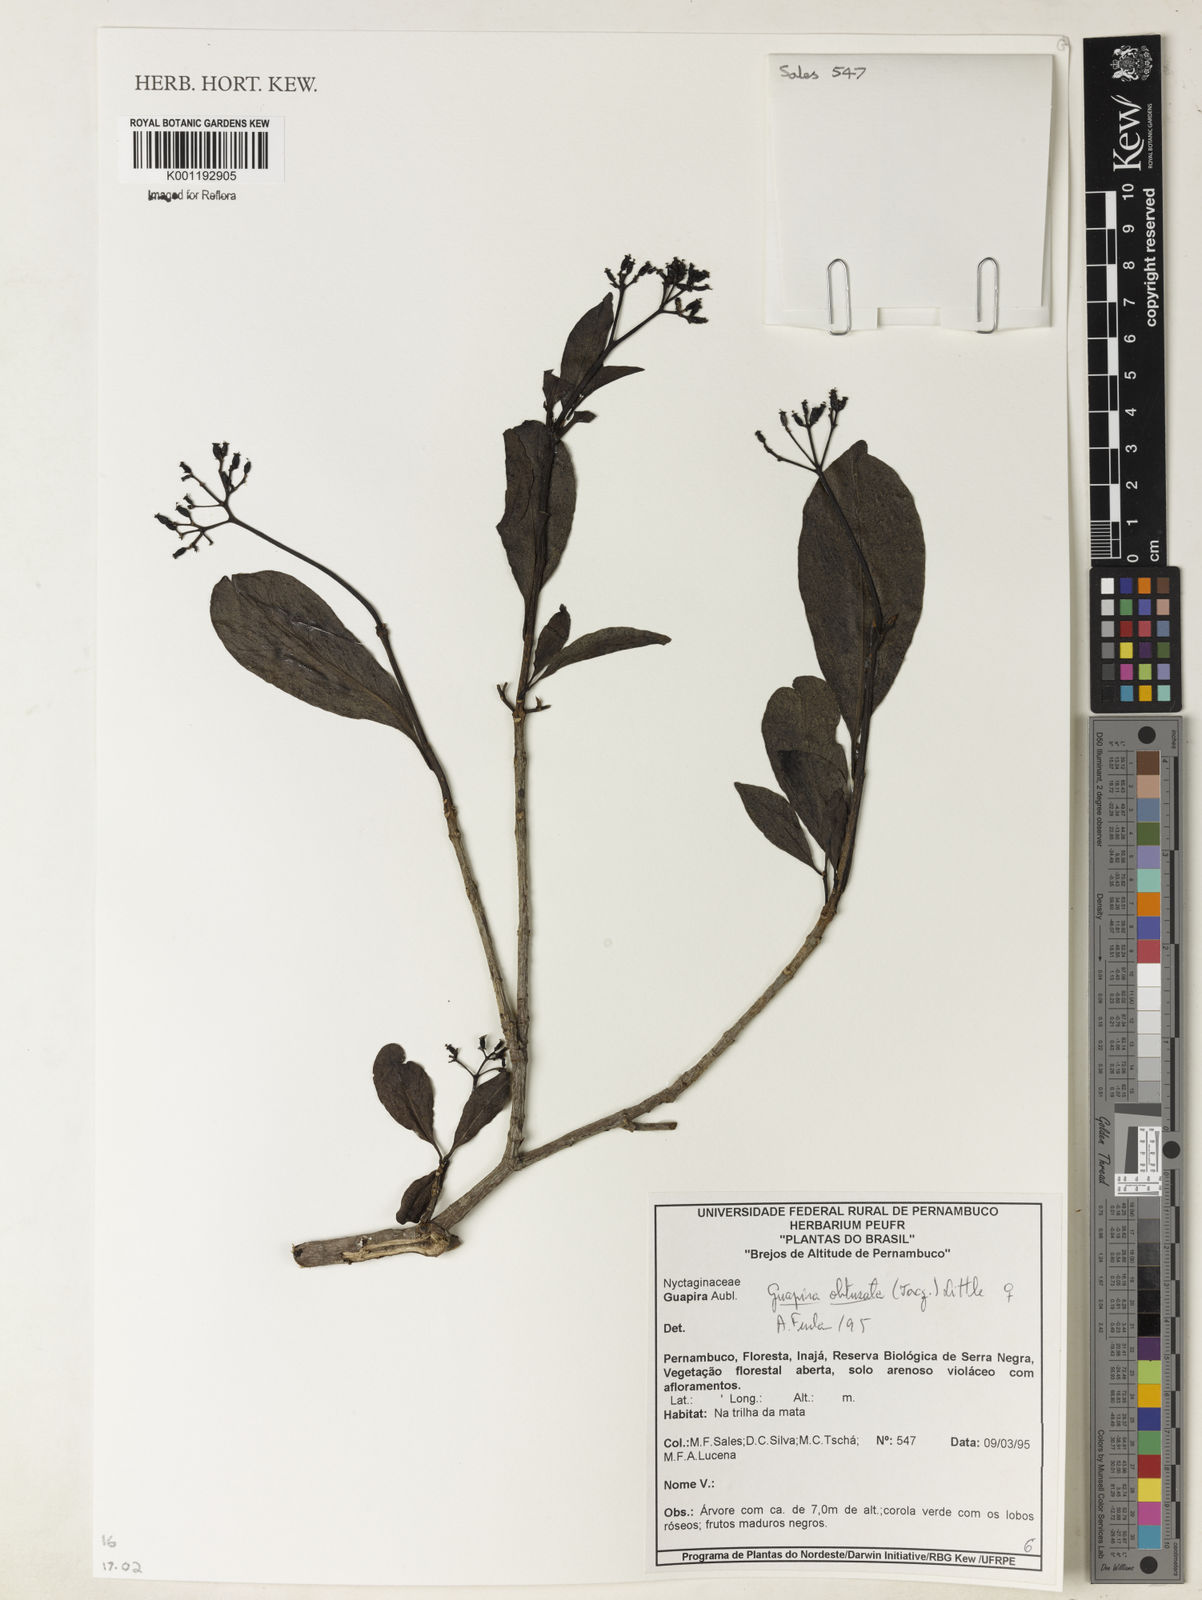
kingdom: Plantae
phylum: Tracheophyta
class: Magnoliopsida
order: Caryophyllales
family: Nyctaginaceae
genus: Guapira
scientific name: Guapira obtusata
